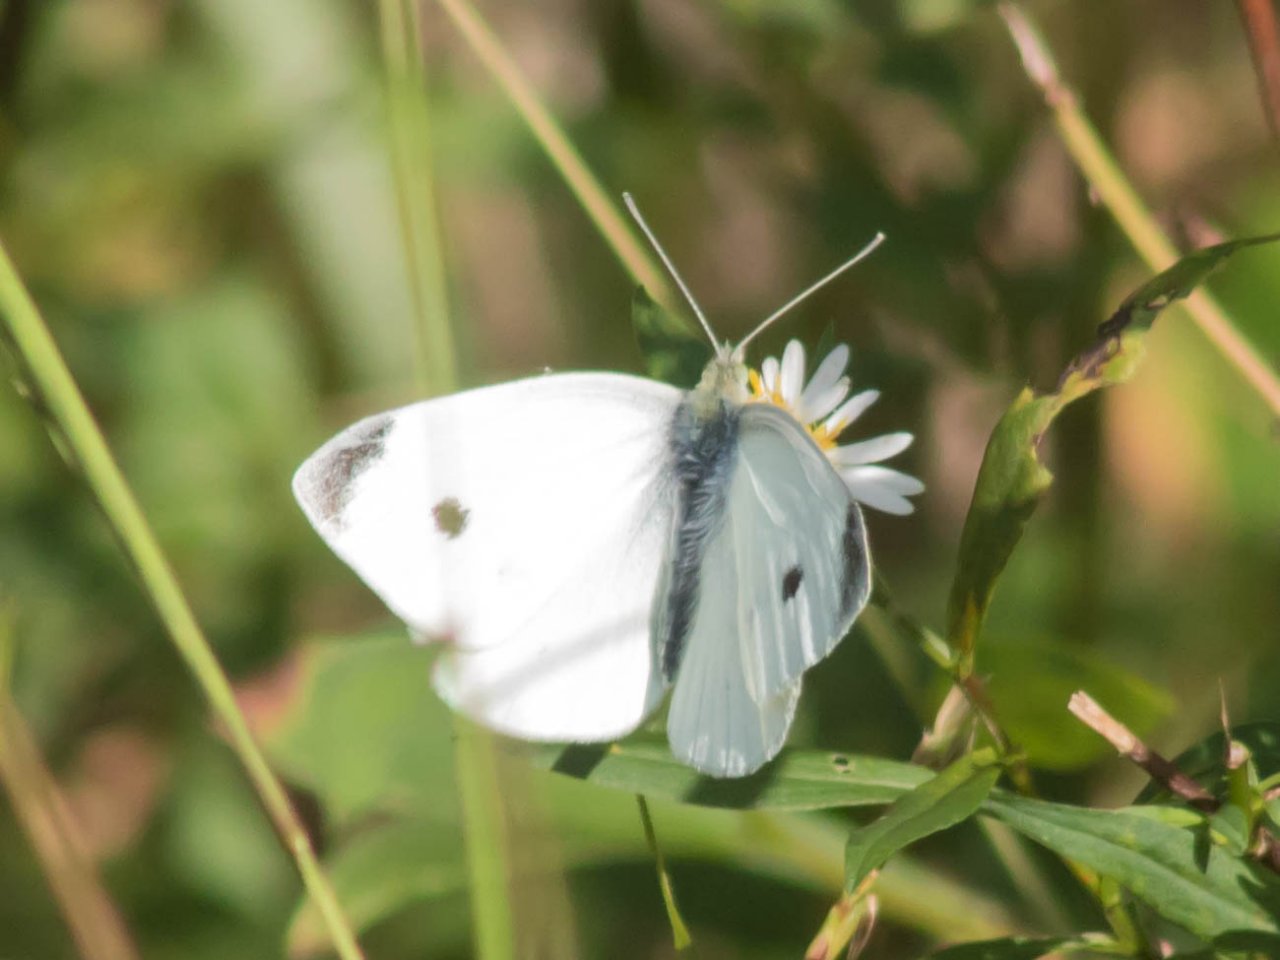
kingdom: Animalia
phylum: Arthropoda
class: Insecta
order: Lepidoptera
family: Pieridae
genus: Pieris
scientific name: Pieris rapae
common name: Cabbage White
